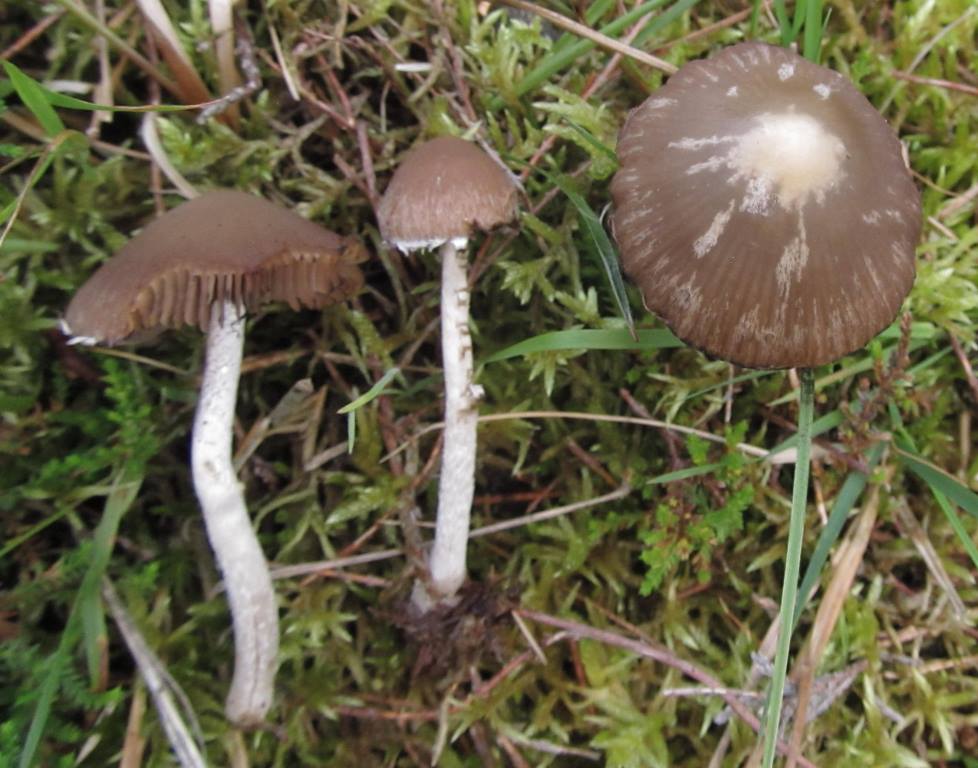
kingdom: Fungi
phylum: Basidiomycota
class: Agaricomycetes
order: Agaricales
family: Psathyrellaceae
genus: Psathyrella
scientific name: Psathyrella senex
